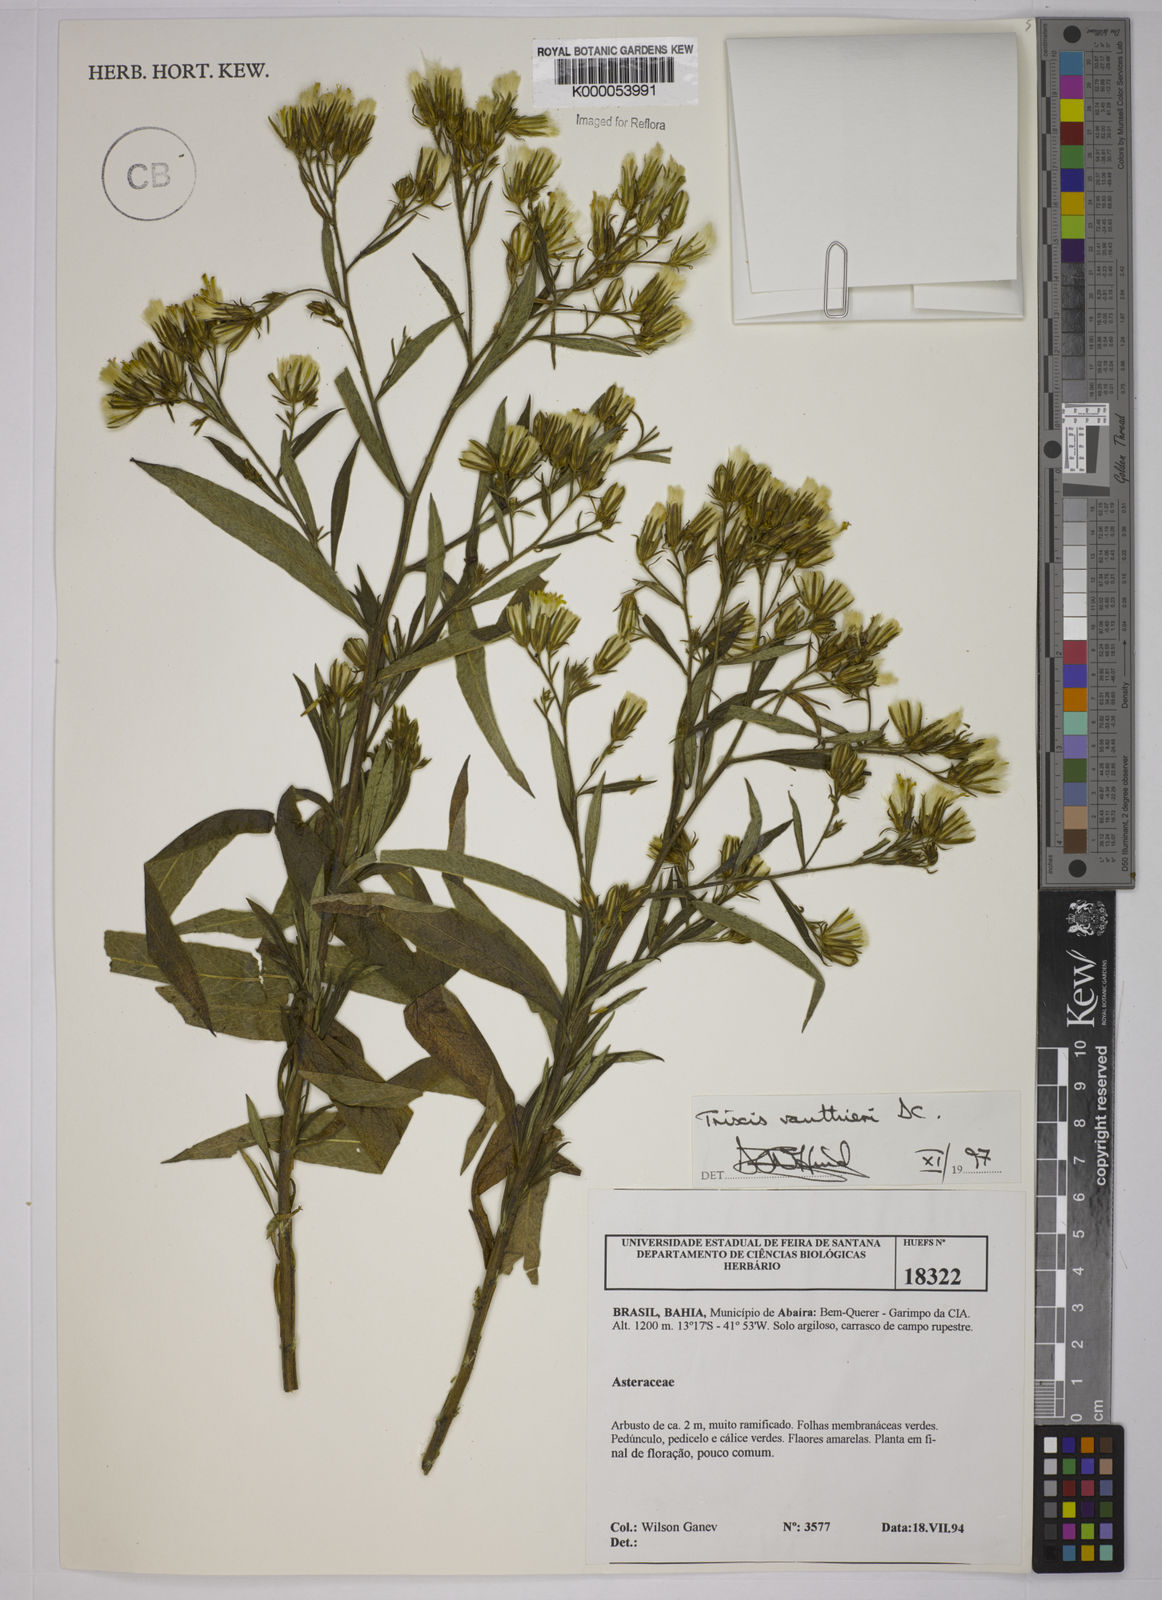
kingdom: Plantae
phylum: Tracheophyta
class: Magnoliopsida
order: Asterales
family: Asteraceae
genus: Trixis
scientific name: Trixis vauthieri
